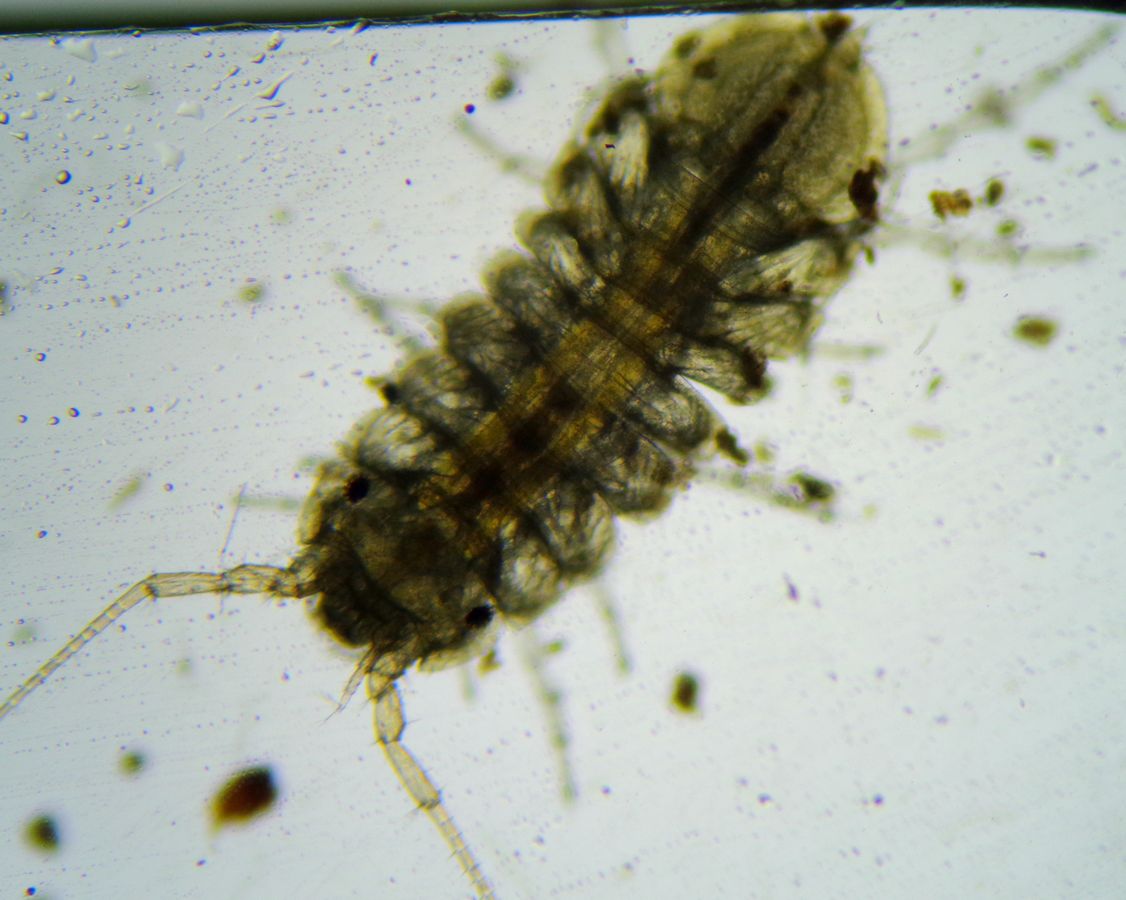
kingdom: Animalia
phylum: Arthropoda
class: Malacostraca
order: Isopoda
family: Janiridae
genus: Jaera
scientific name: Jaera albifrons
